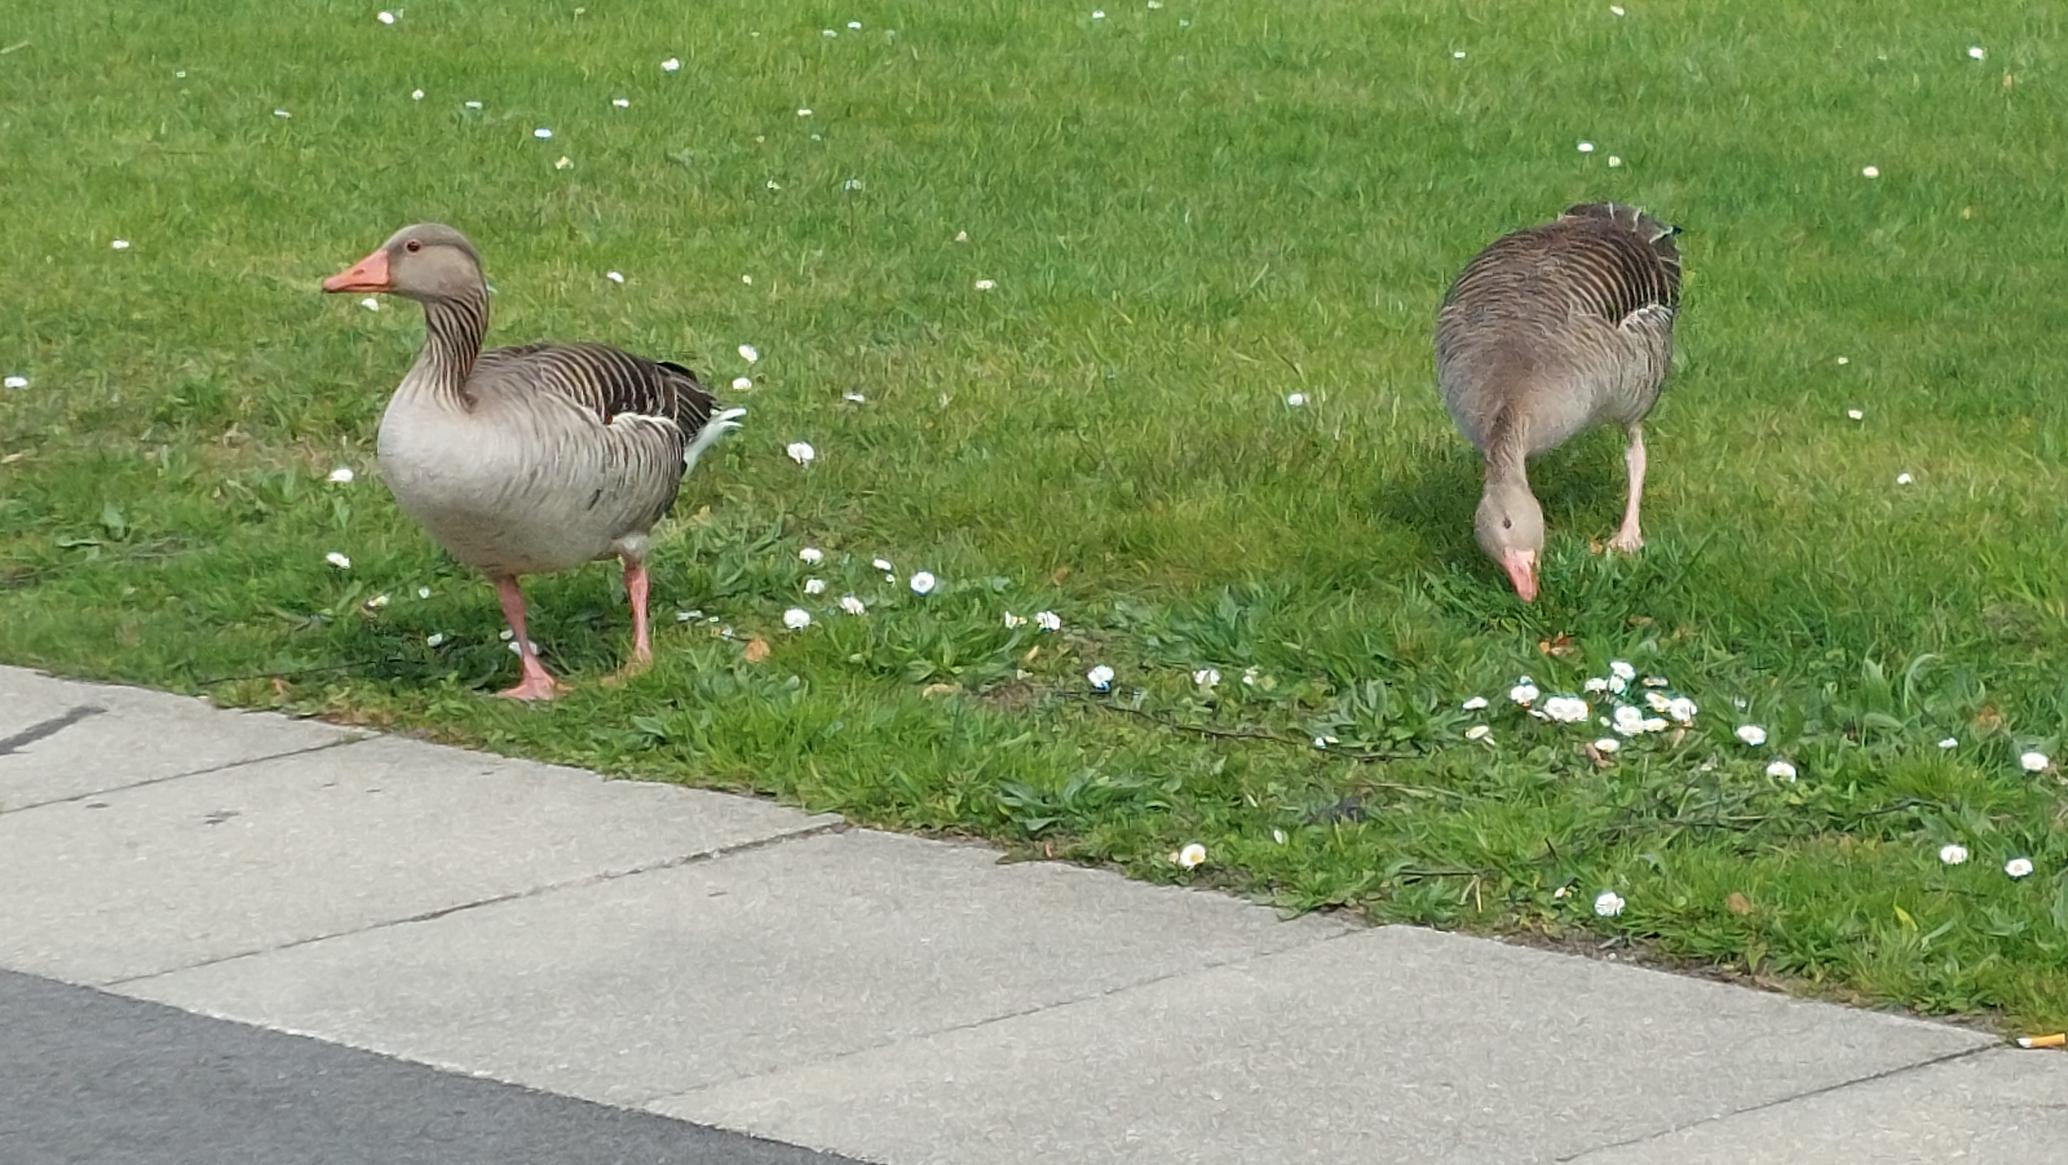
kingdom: Animalia
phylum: Chordata
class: Aves
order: Anseriformes
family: Anatidae
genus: Anser
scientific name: Anser anser
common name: Grågås
